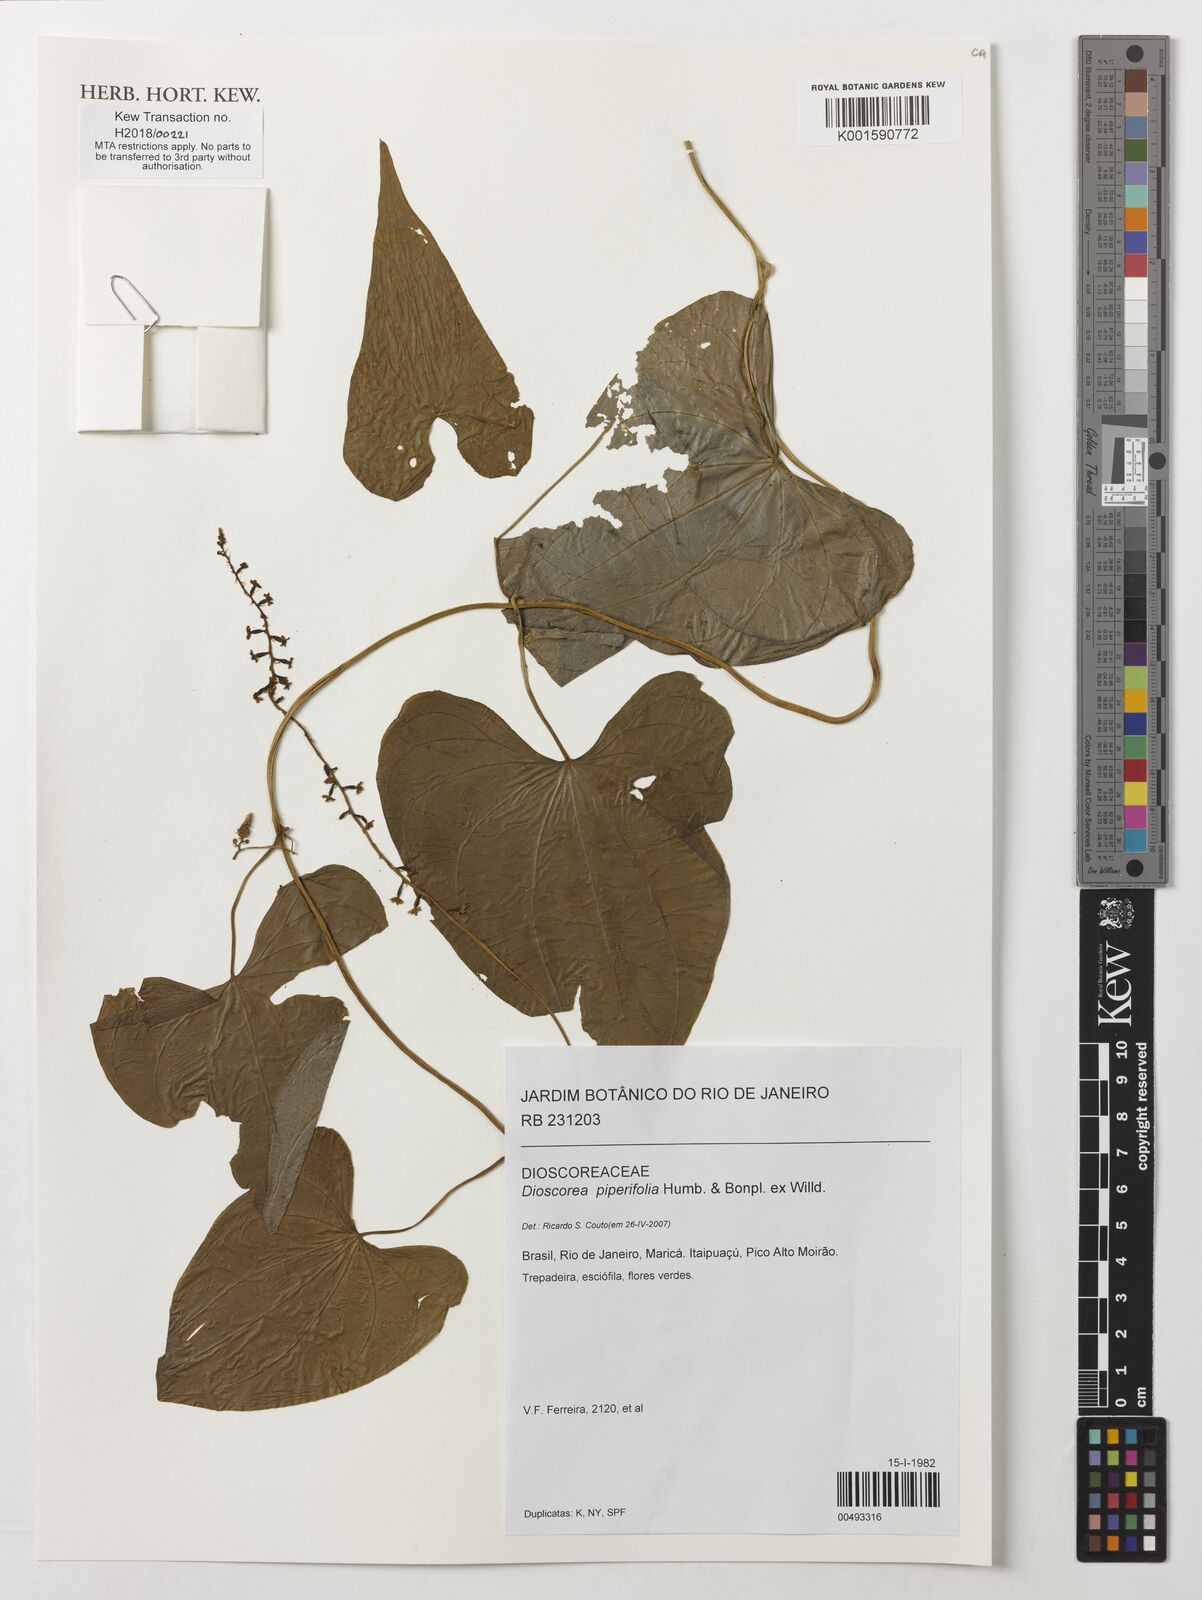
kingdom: Plantae
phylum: Tracheophyta
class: Liliopsida
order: Dioscoreales
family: Dioscoreaceae
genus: Dioscorea
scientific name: Dioscorea piperifolia
